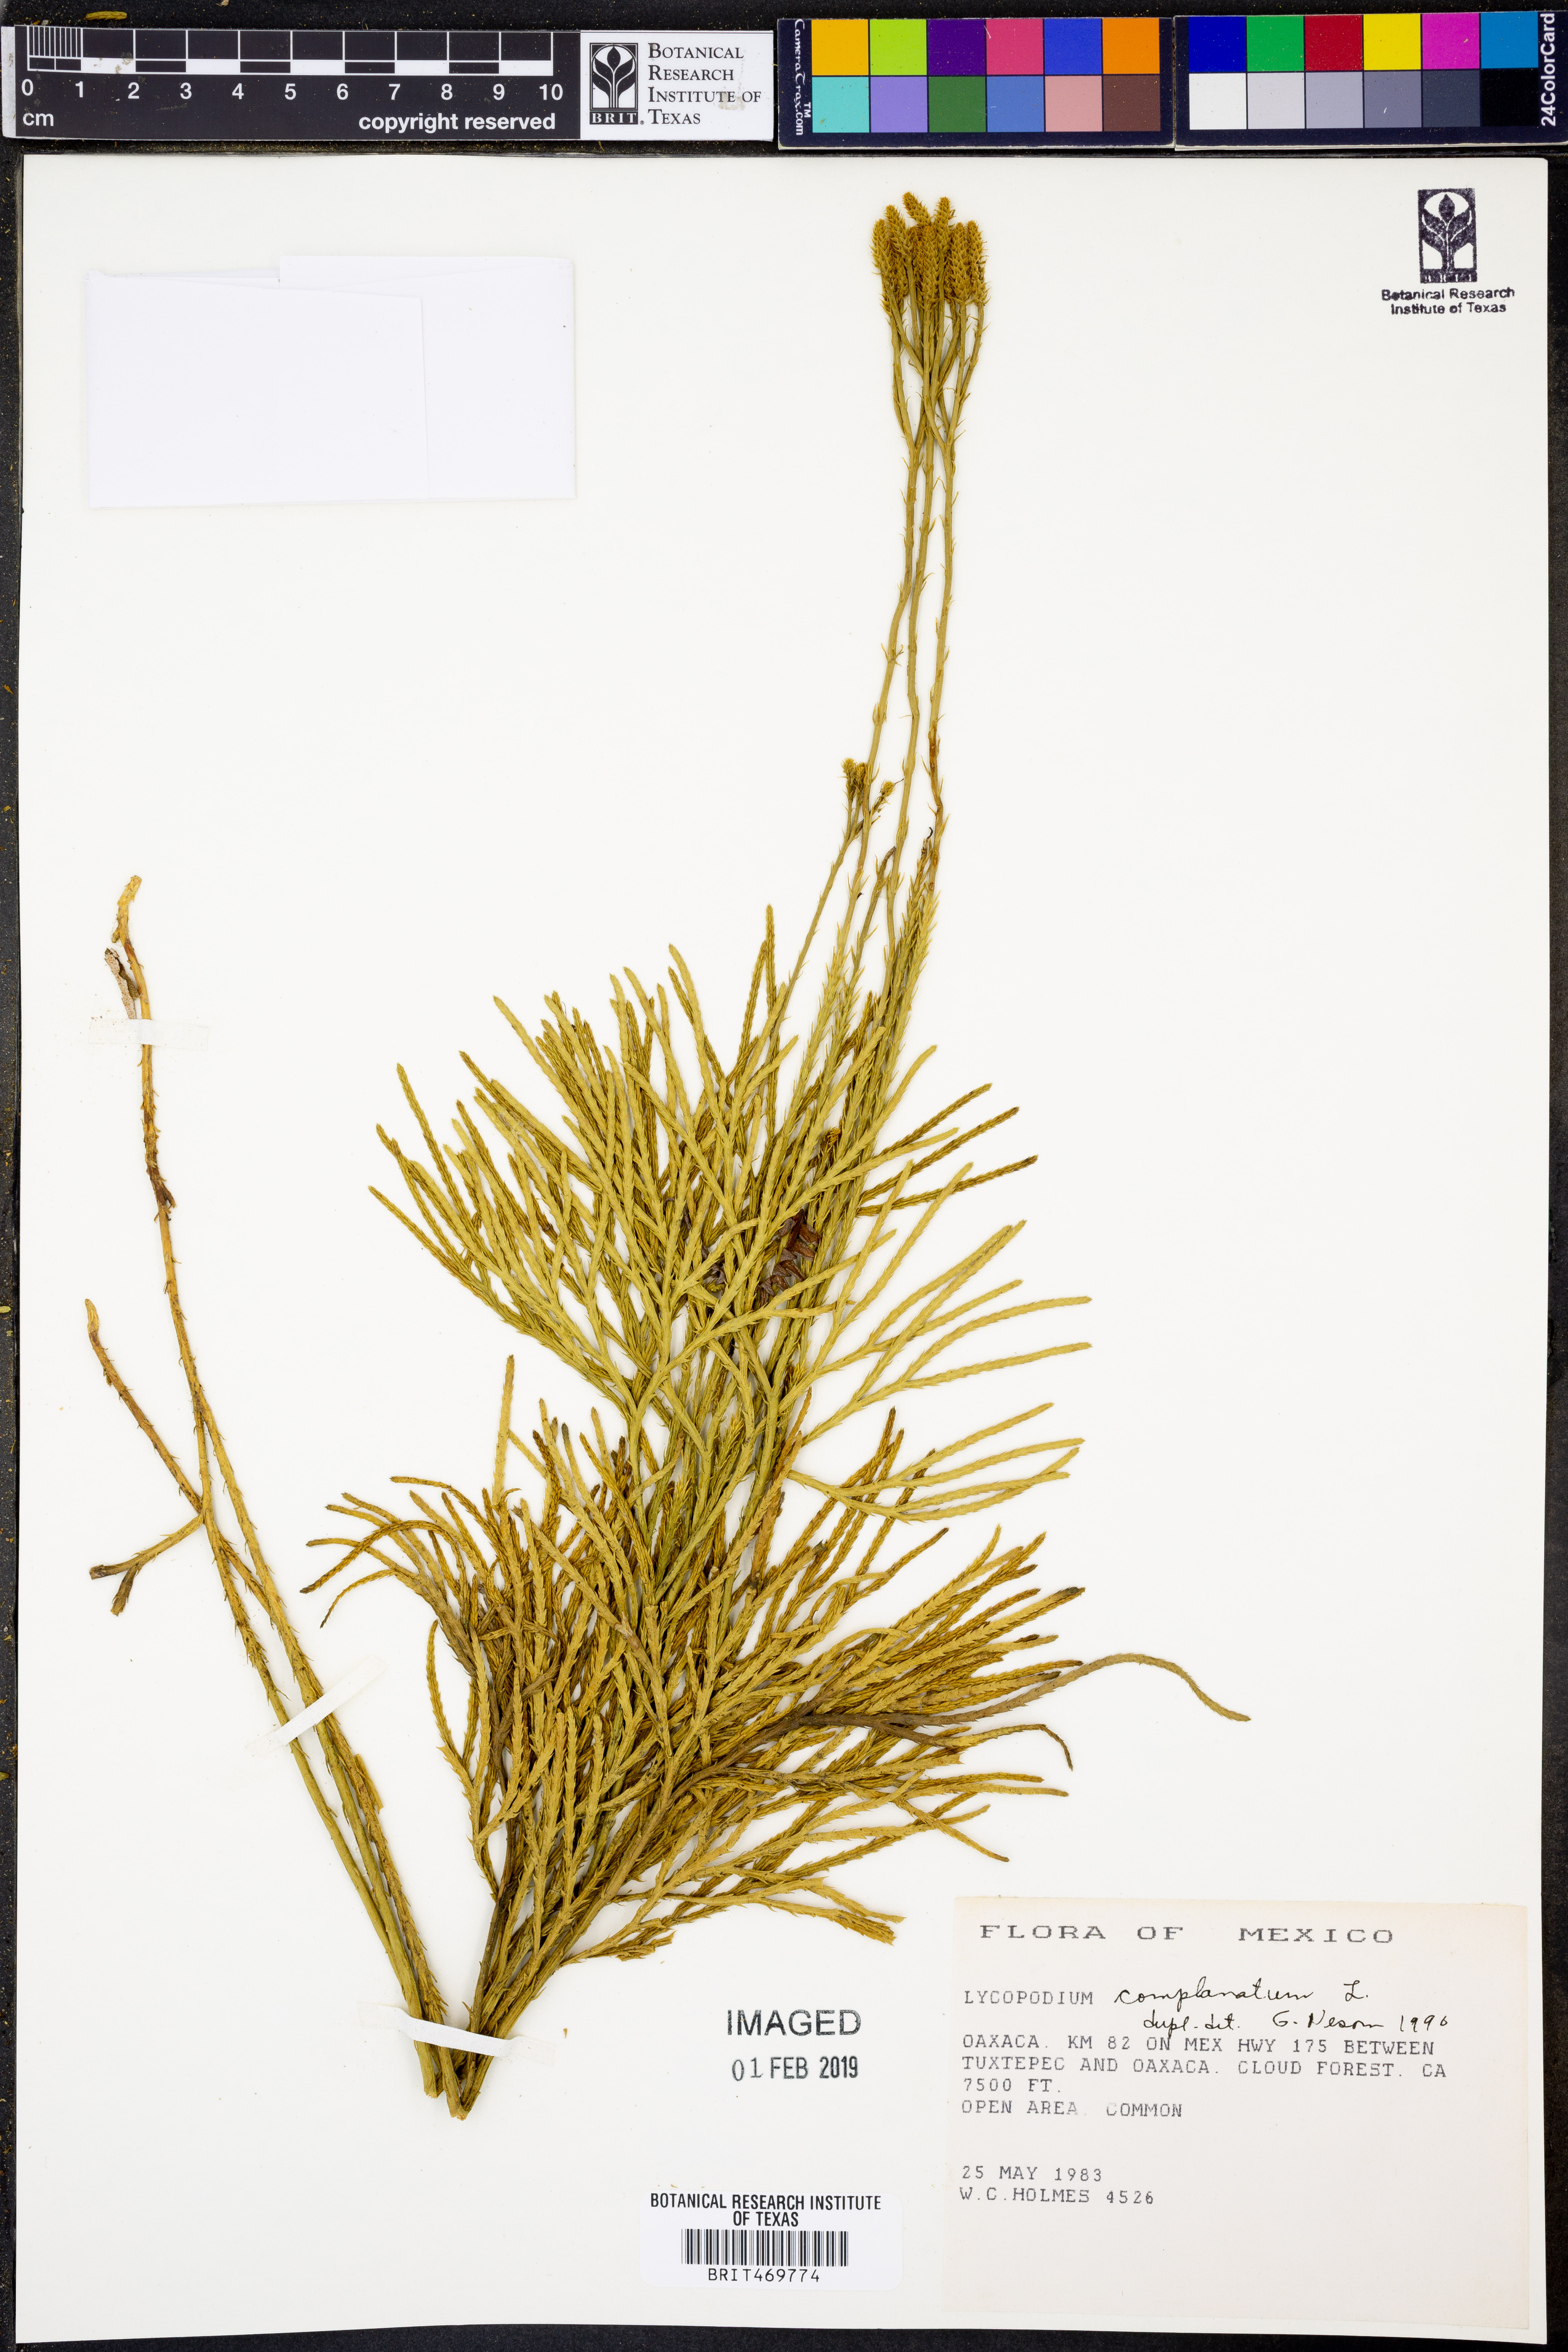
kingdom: Plantae
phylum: Tracheophyta
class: Lycopodiopsida
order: Lycopodiales
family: Lycopodiaceae
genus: Diphasiastrum
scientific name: Diphasiastrum complanatum
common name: Northern running-pine
